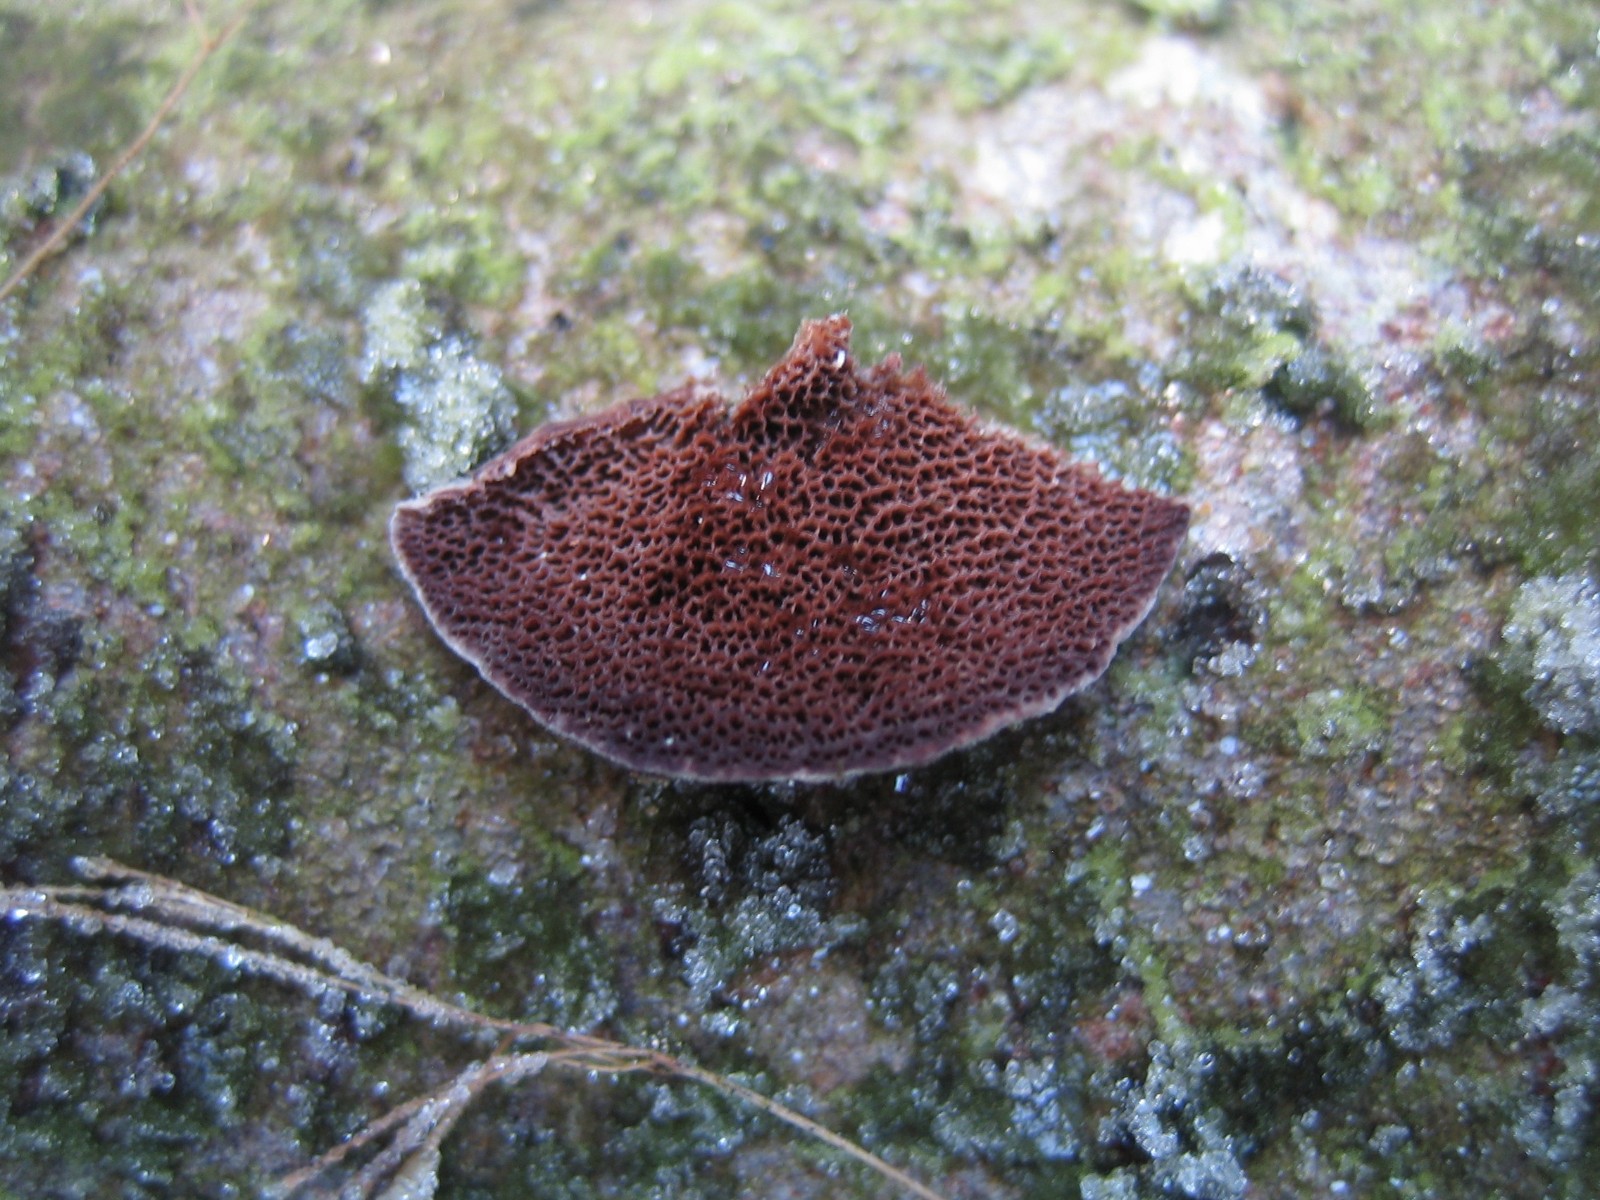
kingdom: Fungi
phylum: Basidiomycota
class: Agaricomycetes
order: Hymenochaetales
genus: Trichaptum
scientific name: Trichaptum abietinum
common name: almindelig violporesvamp
